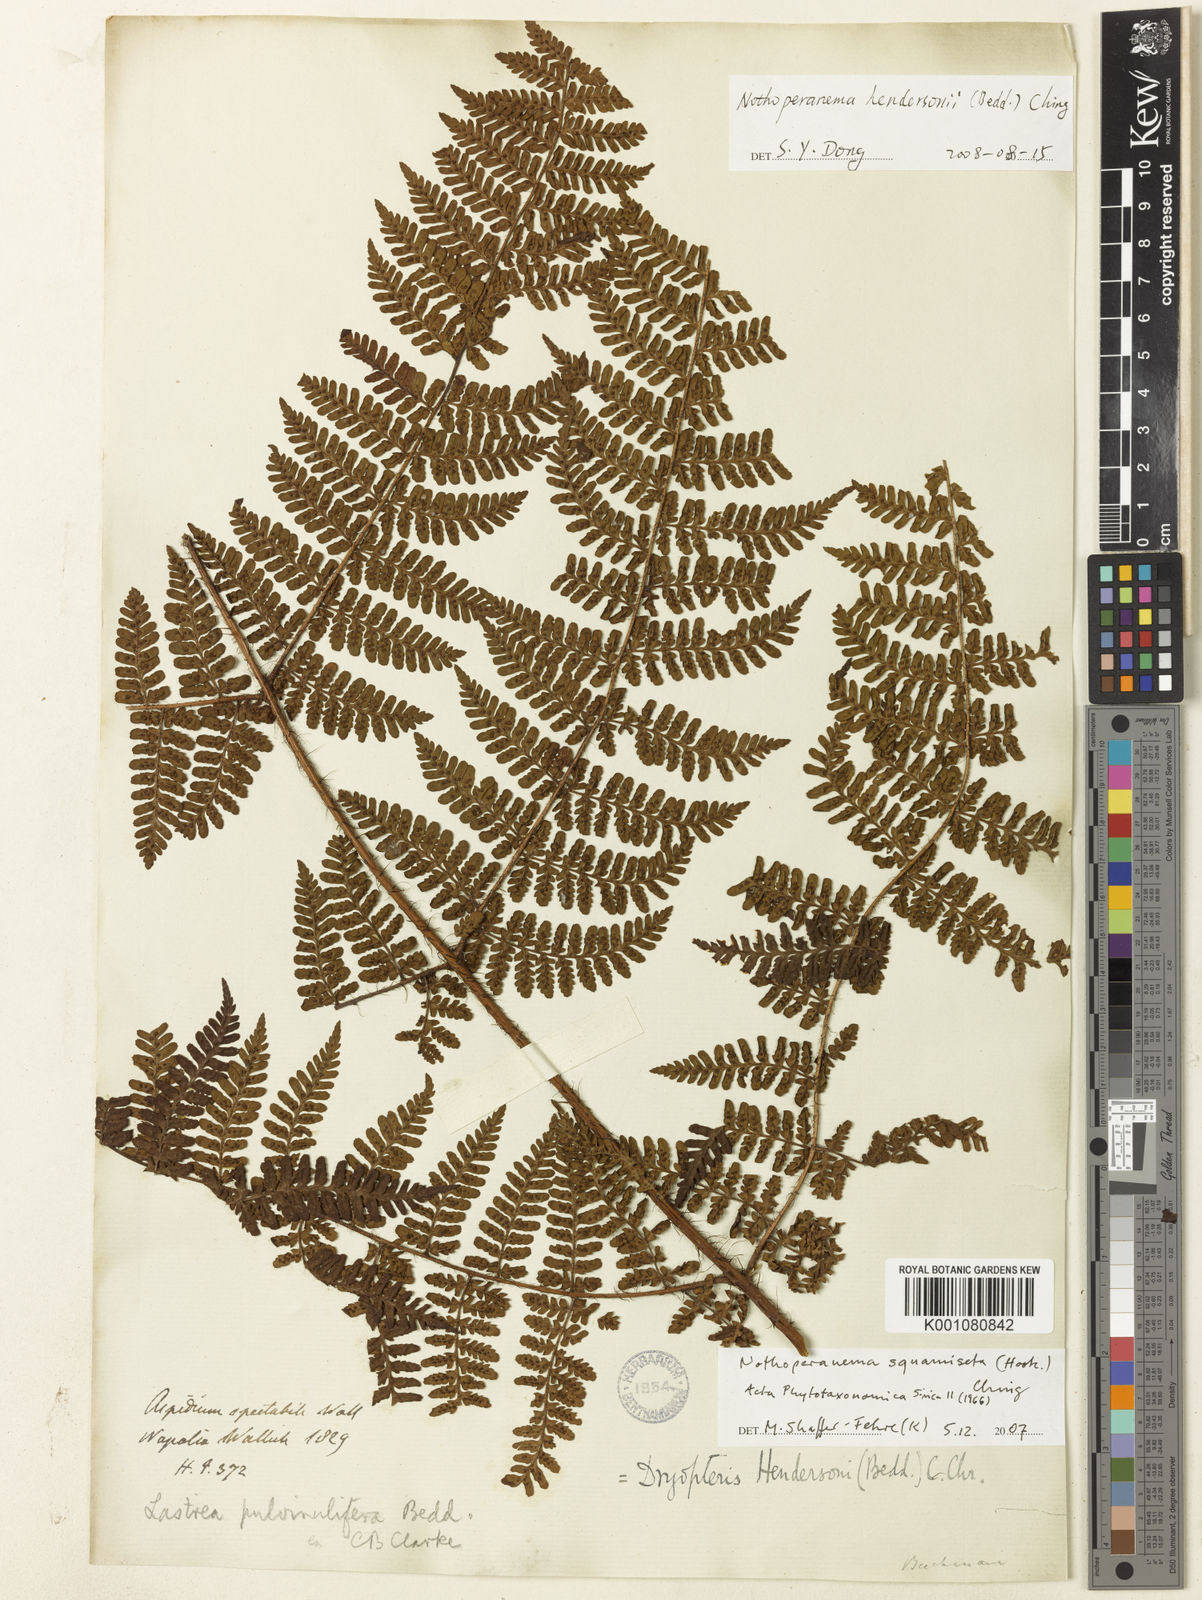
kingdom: Plantae
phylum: Tracheophyta
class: Polypodiopsida
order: Polypodiales
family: Dryopteridaceae
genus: Dryopteris
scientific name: Dryopteris squamiseta
